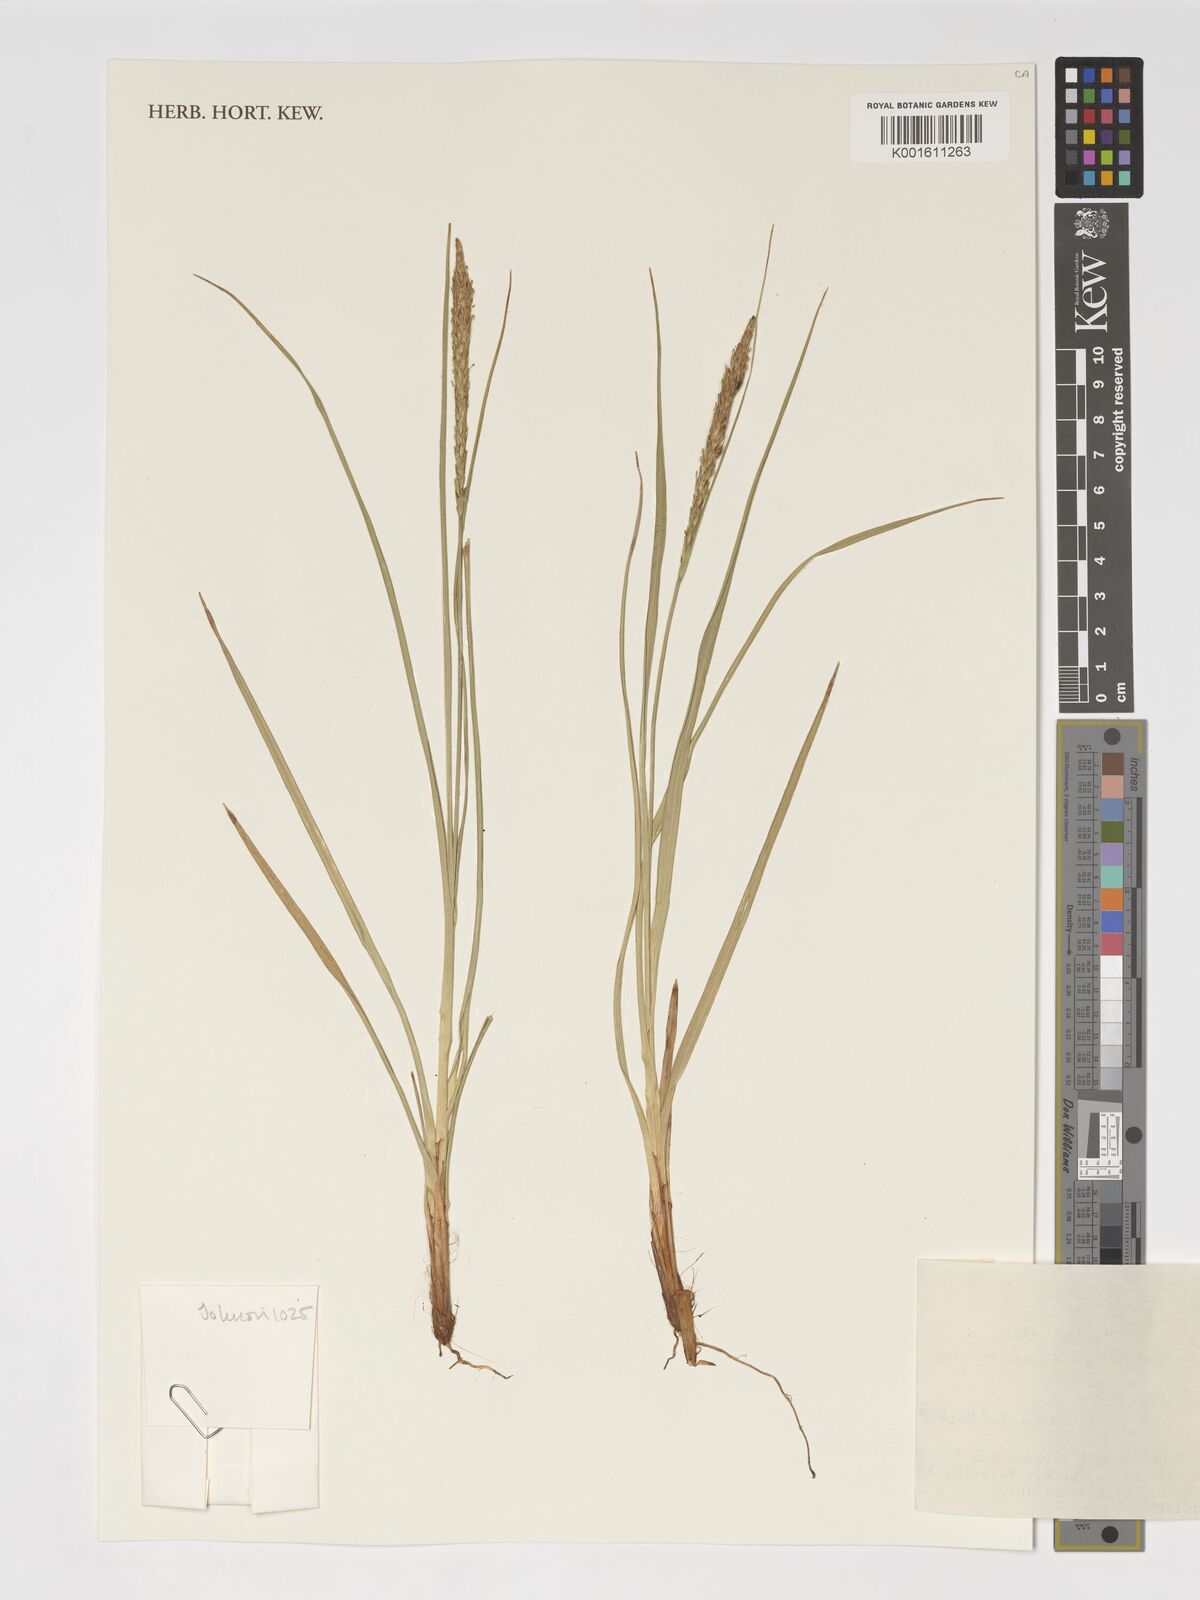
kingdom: Fungi
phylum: Ascomycota
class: Leotiomycetes
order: Helotiales
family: Hamatocanthoscyphaceae
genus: Uncinia
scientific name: Uncinia
